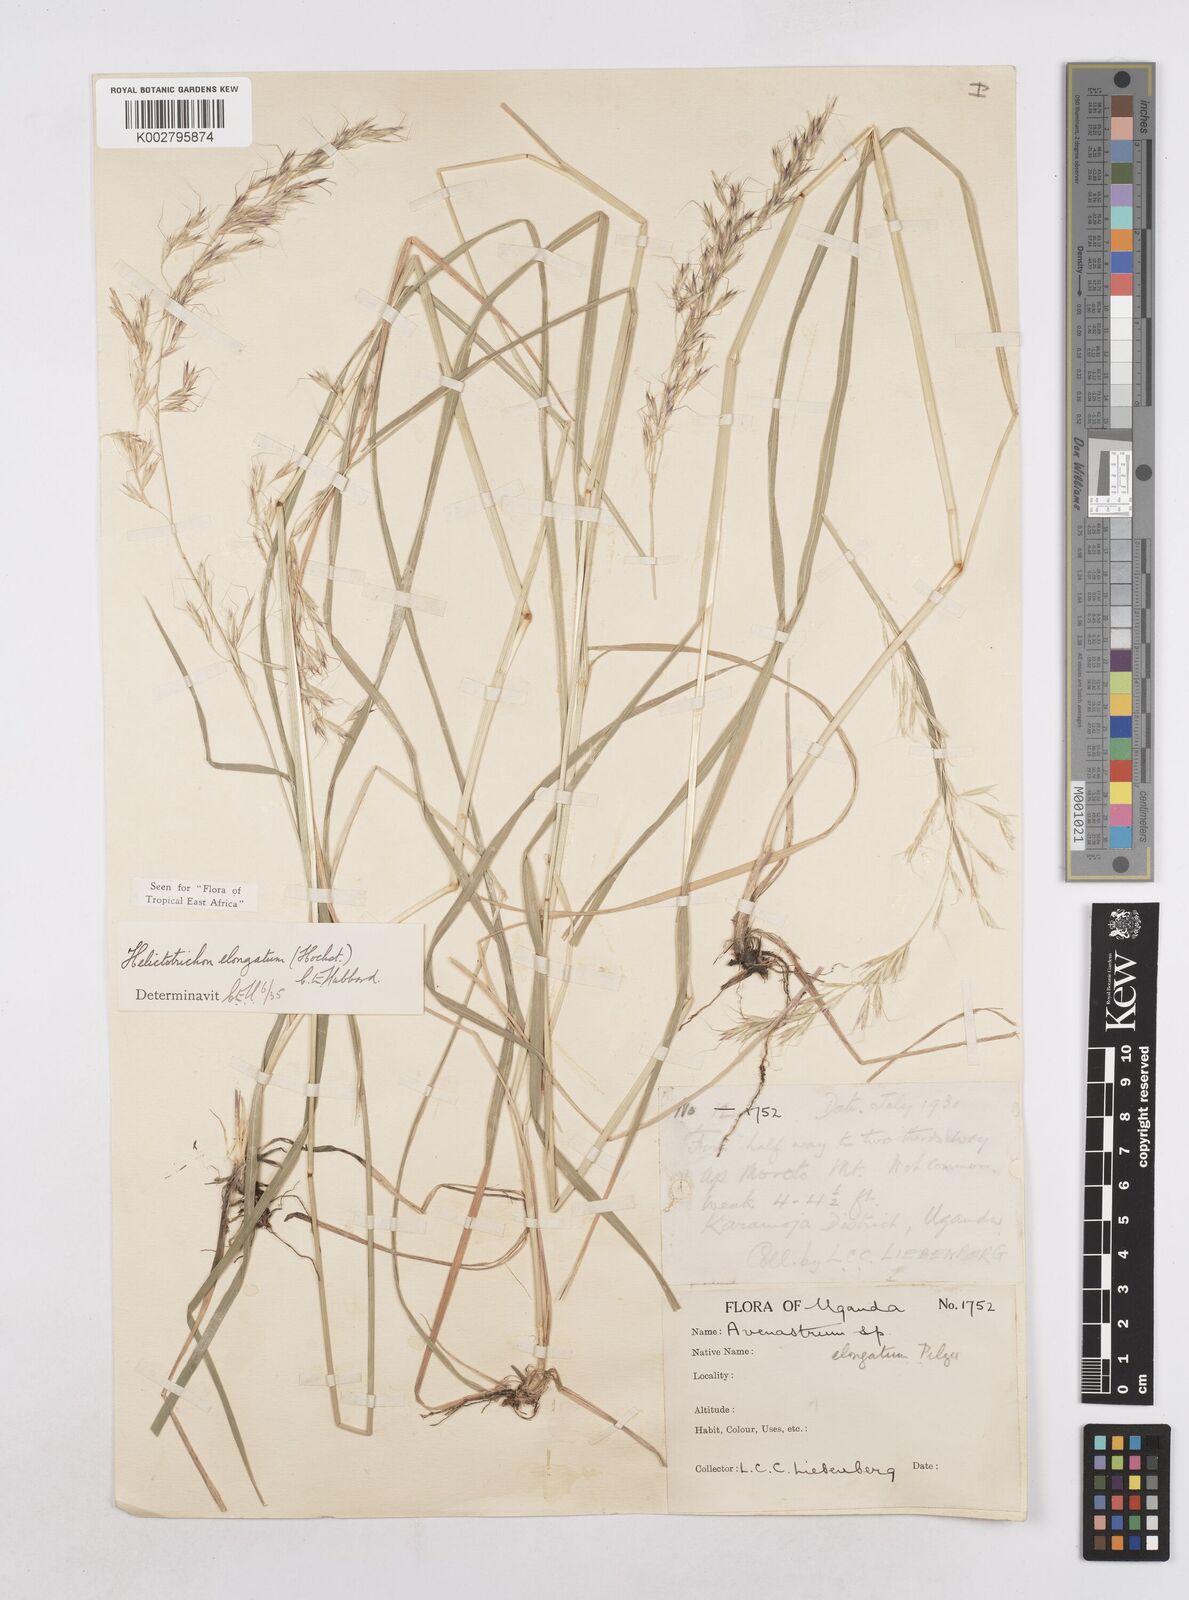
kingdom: Plantae
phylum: Tracheophyta
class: Liliopsida
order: Poales
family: Poaceae
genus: Trisetopsis
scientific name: Trisetopsis elongata
